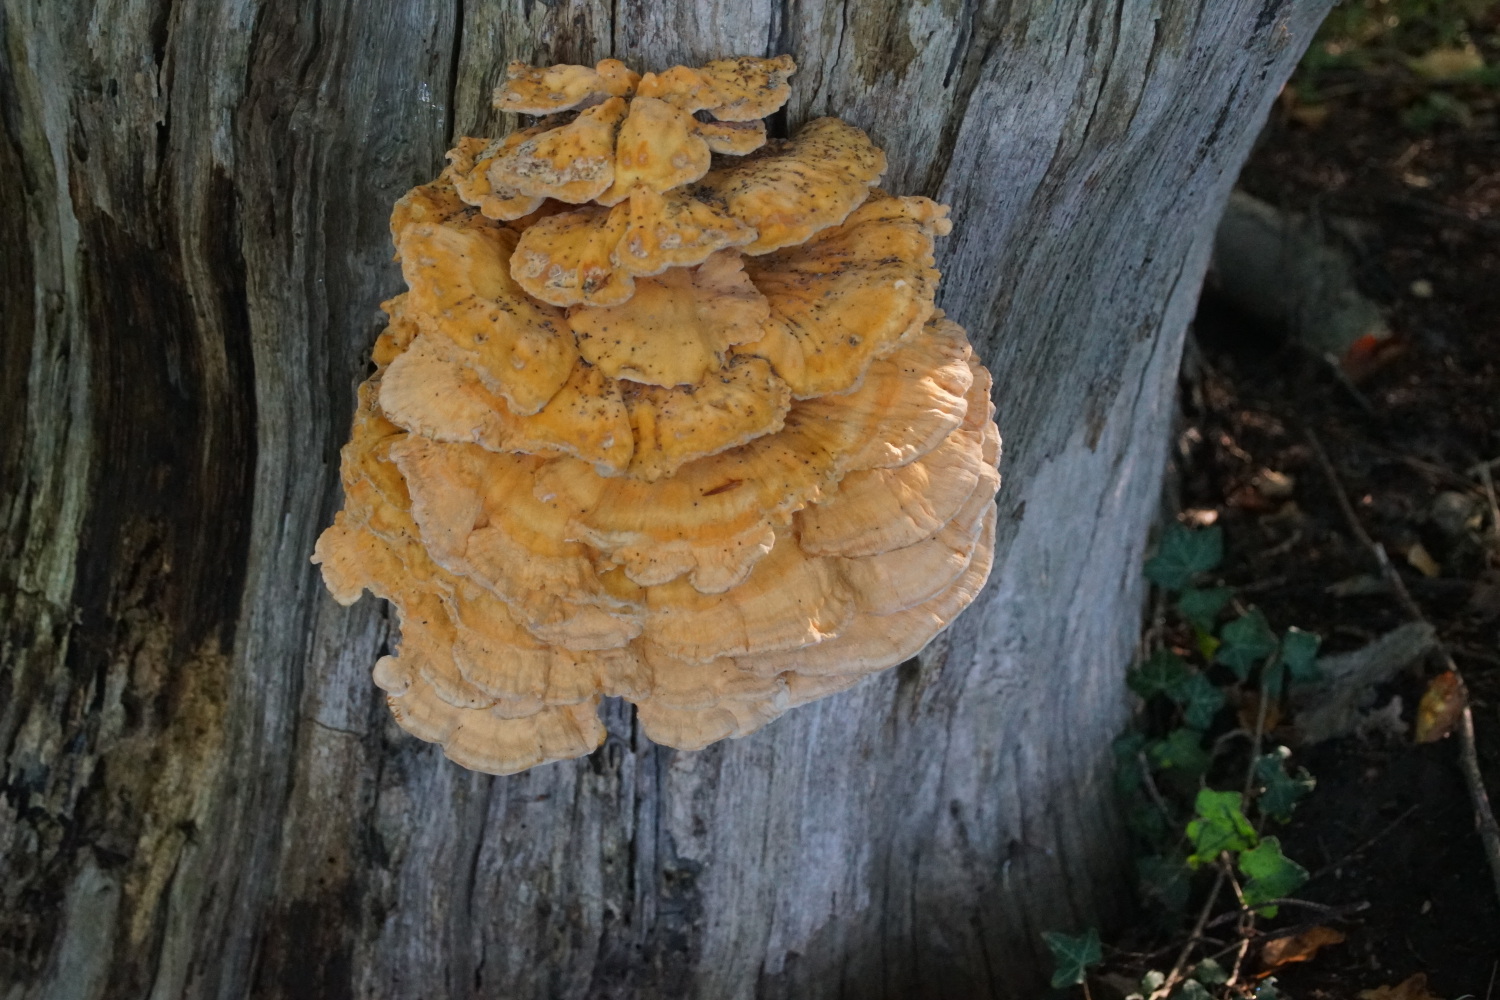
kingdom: Fungi
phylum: Basidiomycota
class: Agaricomycetes
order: Polyporales
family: Laetiporaceae
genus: Laetiporus
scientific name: Laetiporus sulphureus
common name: svovlporesvamp
